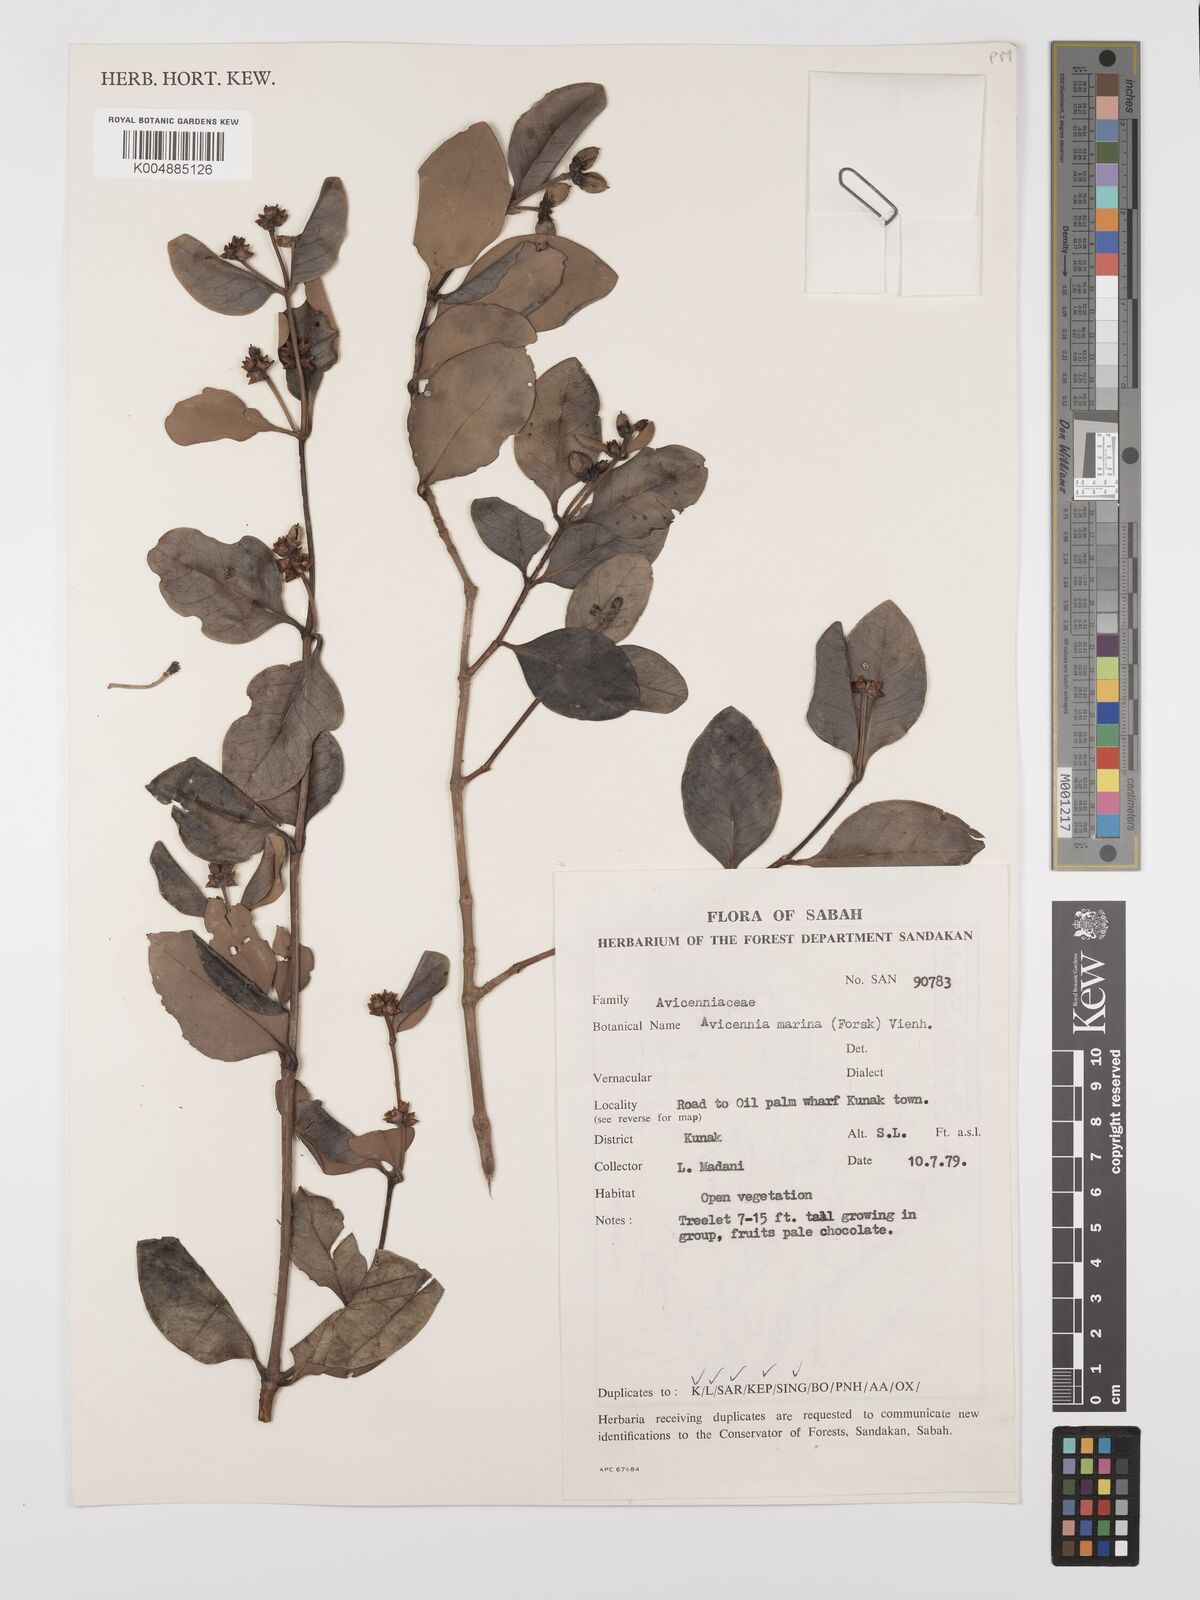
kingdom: Plantae
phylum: Tracheophyta
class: Magnoliopsida
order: Lamiales
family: Acanthaceae
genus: Avicennia
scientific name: Avicennia marina
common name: Gray mangrove
